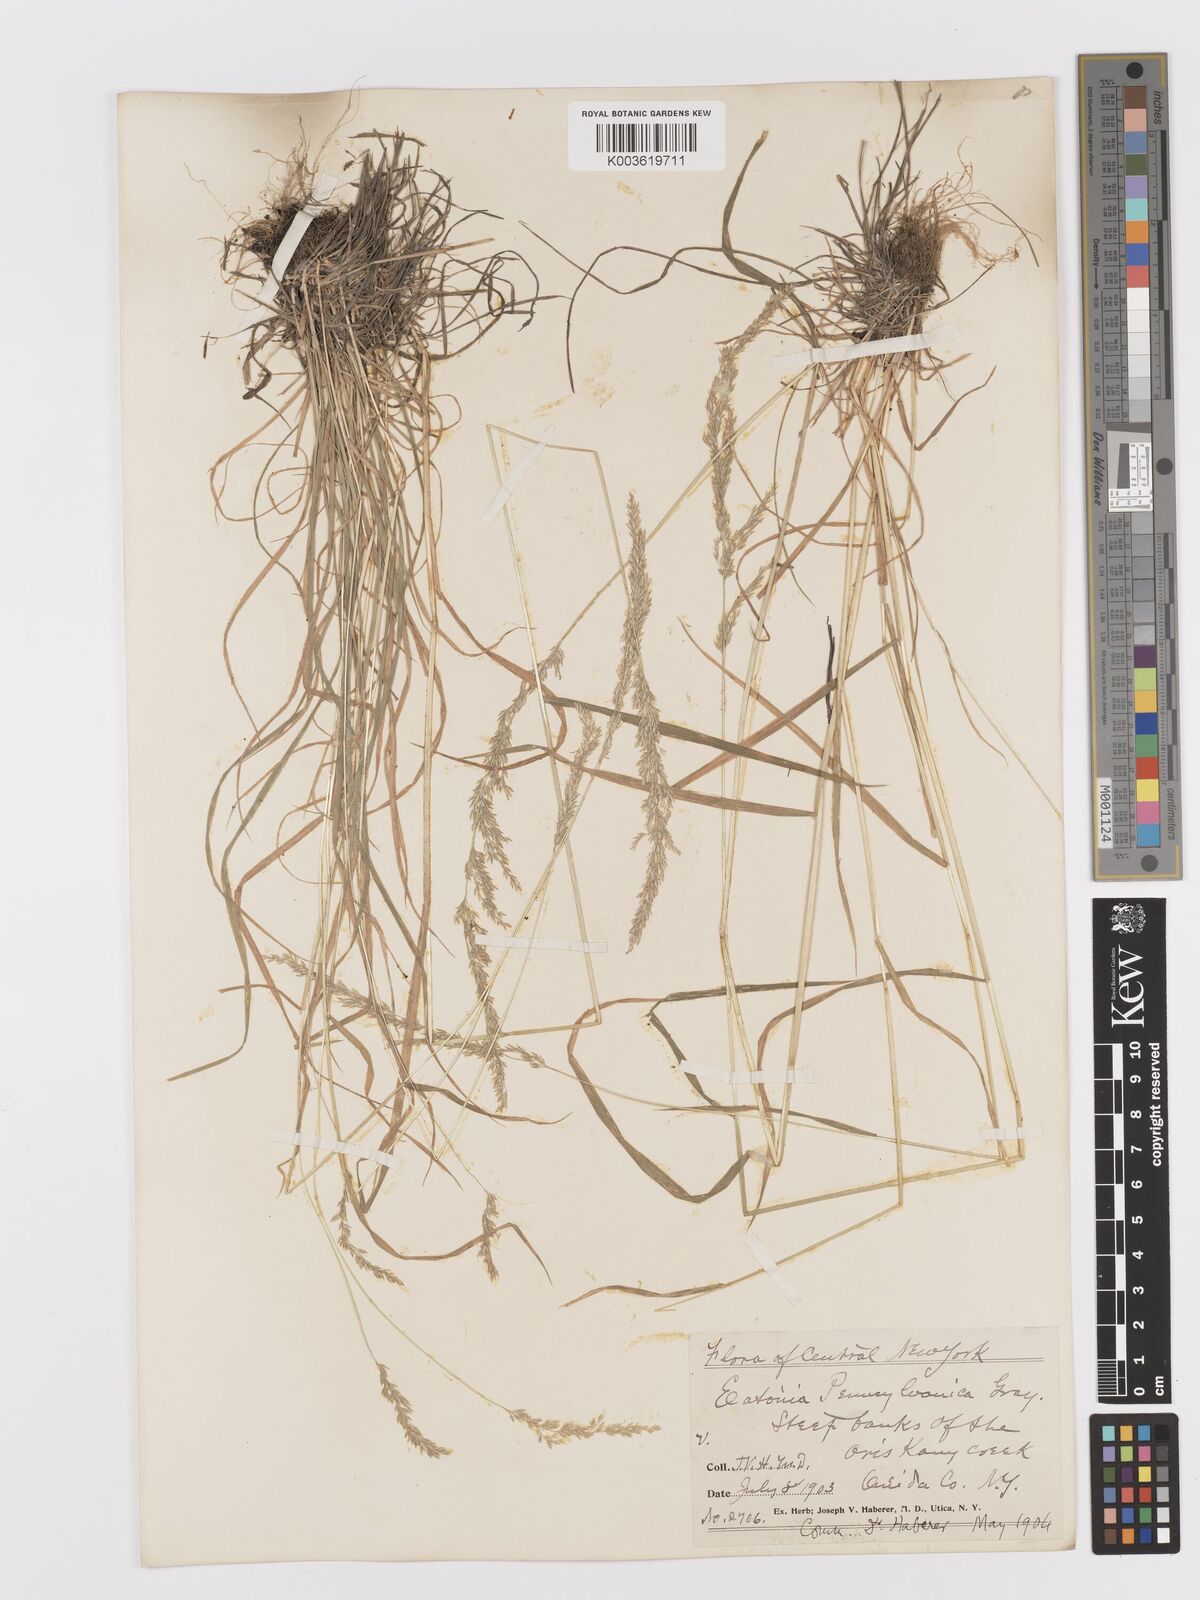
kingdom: Plantae
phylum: Tracheophyta
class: Liliopsida
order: Poales
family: Poaceae
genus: Sphenopholis
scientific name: Sphenopholis obtusata
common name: Prairie grass
